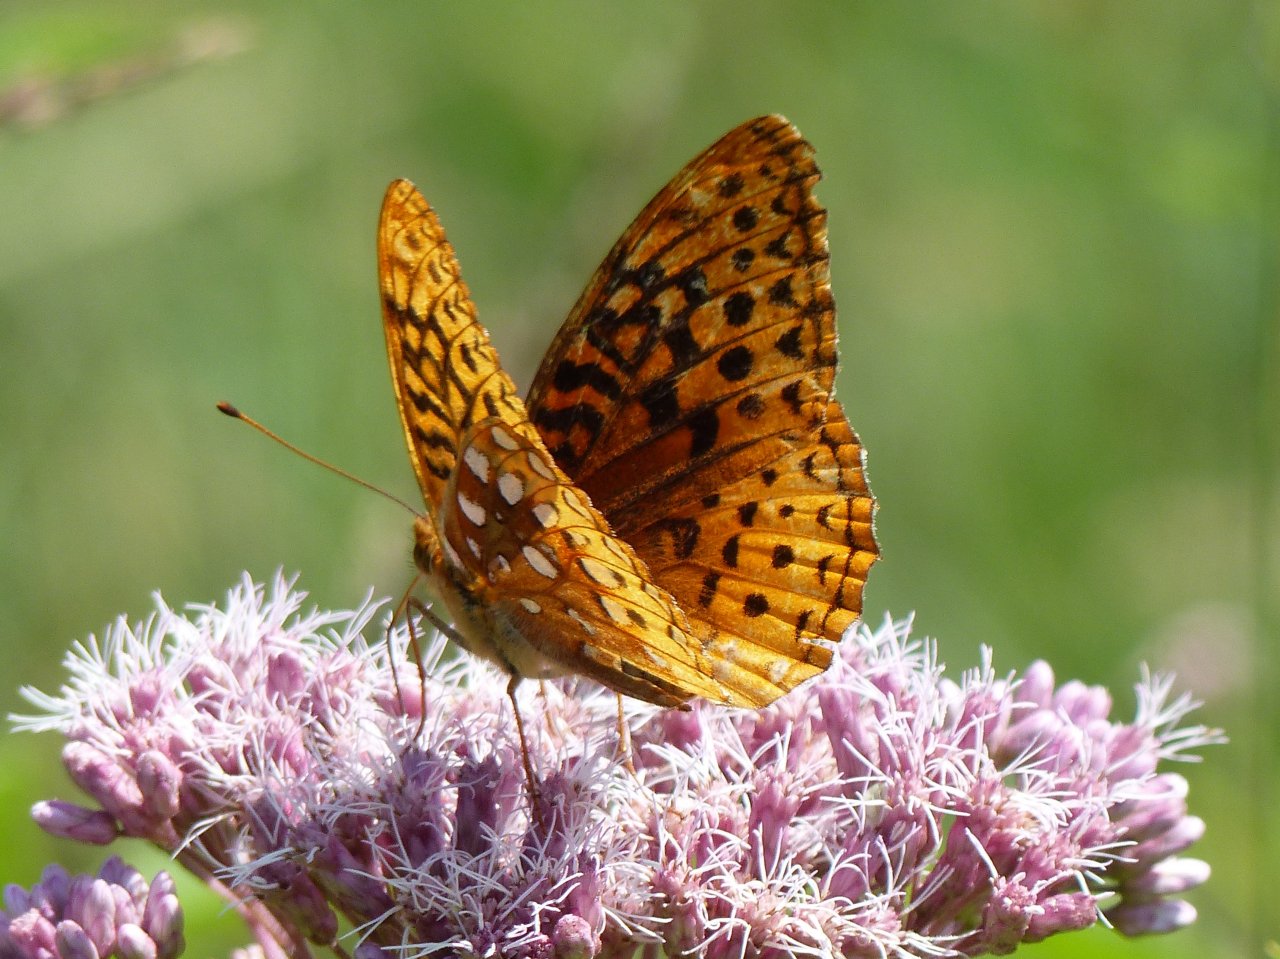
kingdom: Animalia
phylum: Arthropoda
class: Insecta
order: Lepidoptera
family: Nymphalidae
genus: Speyeria
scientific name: Speyeria cybele
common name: Great Spangled Fritillary
